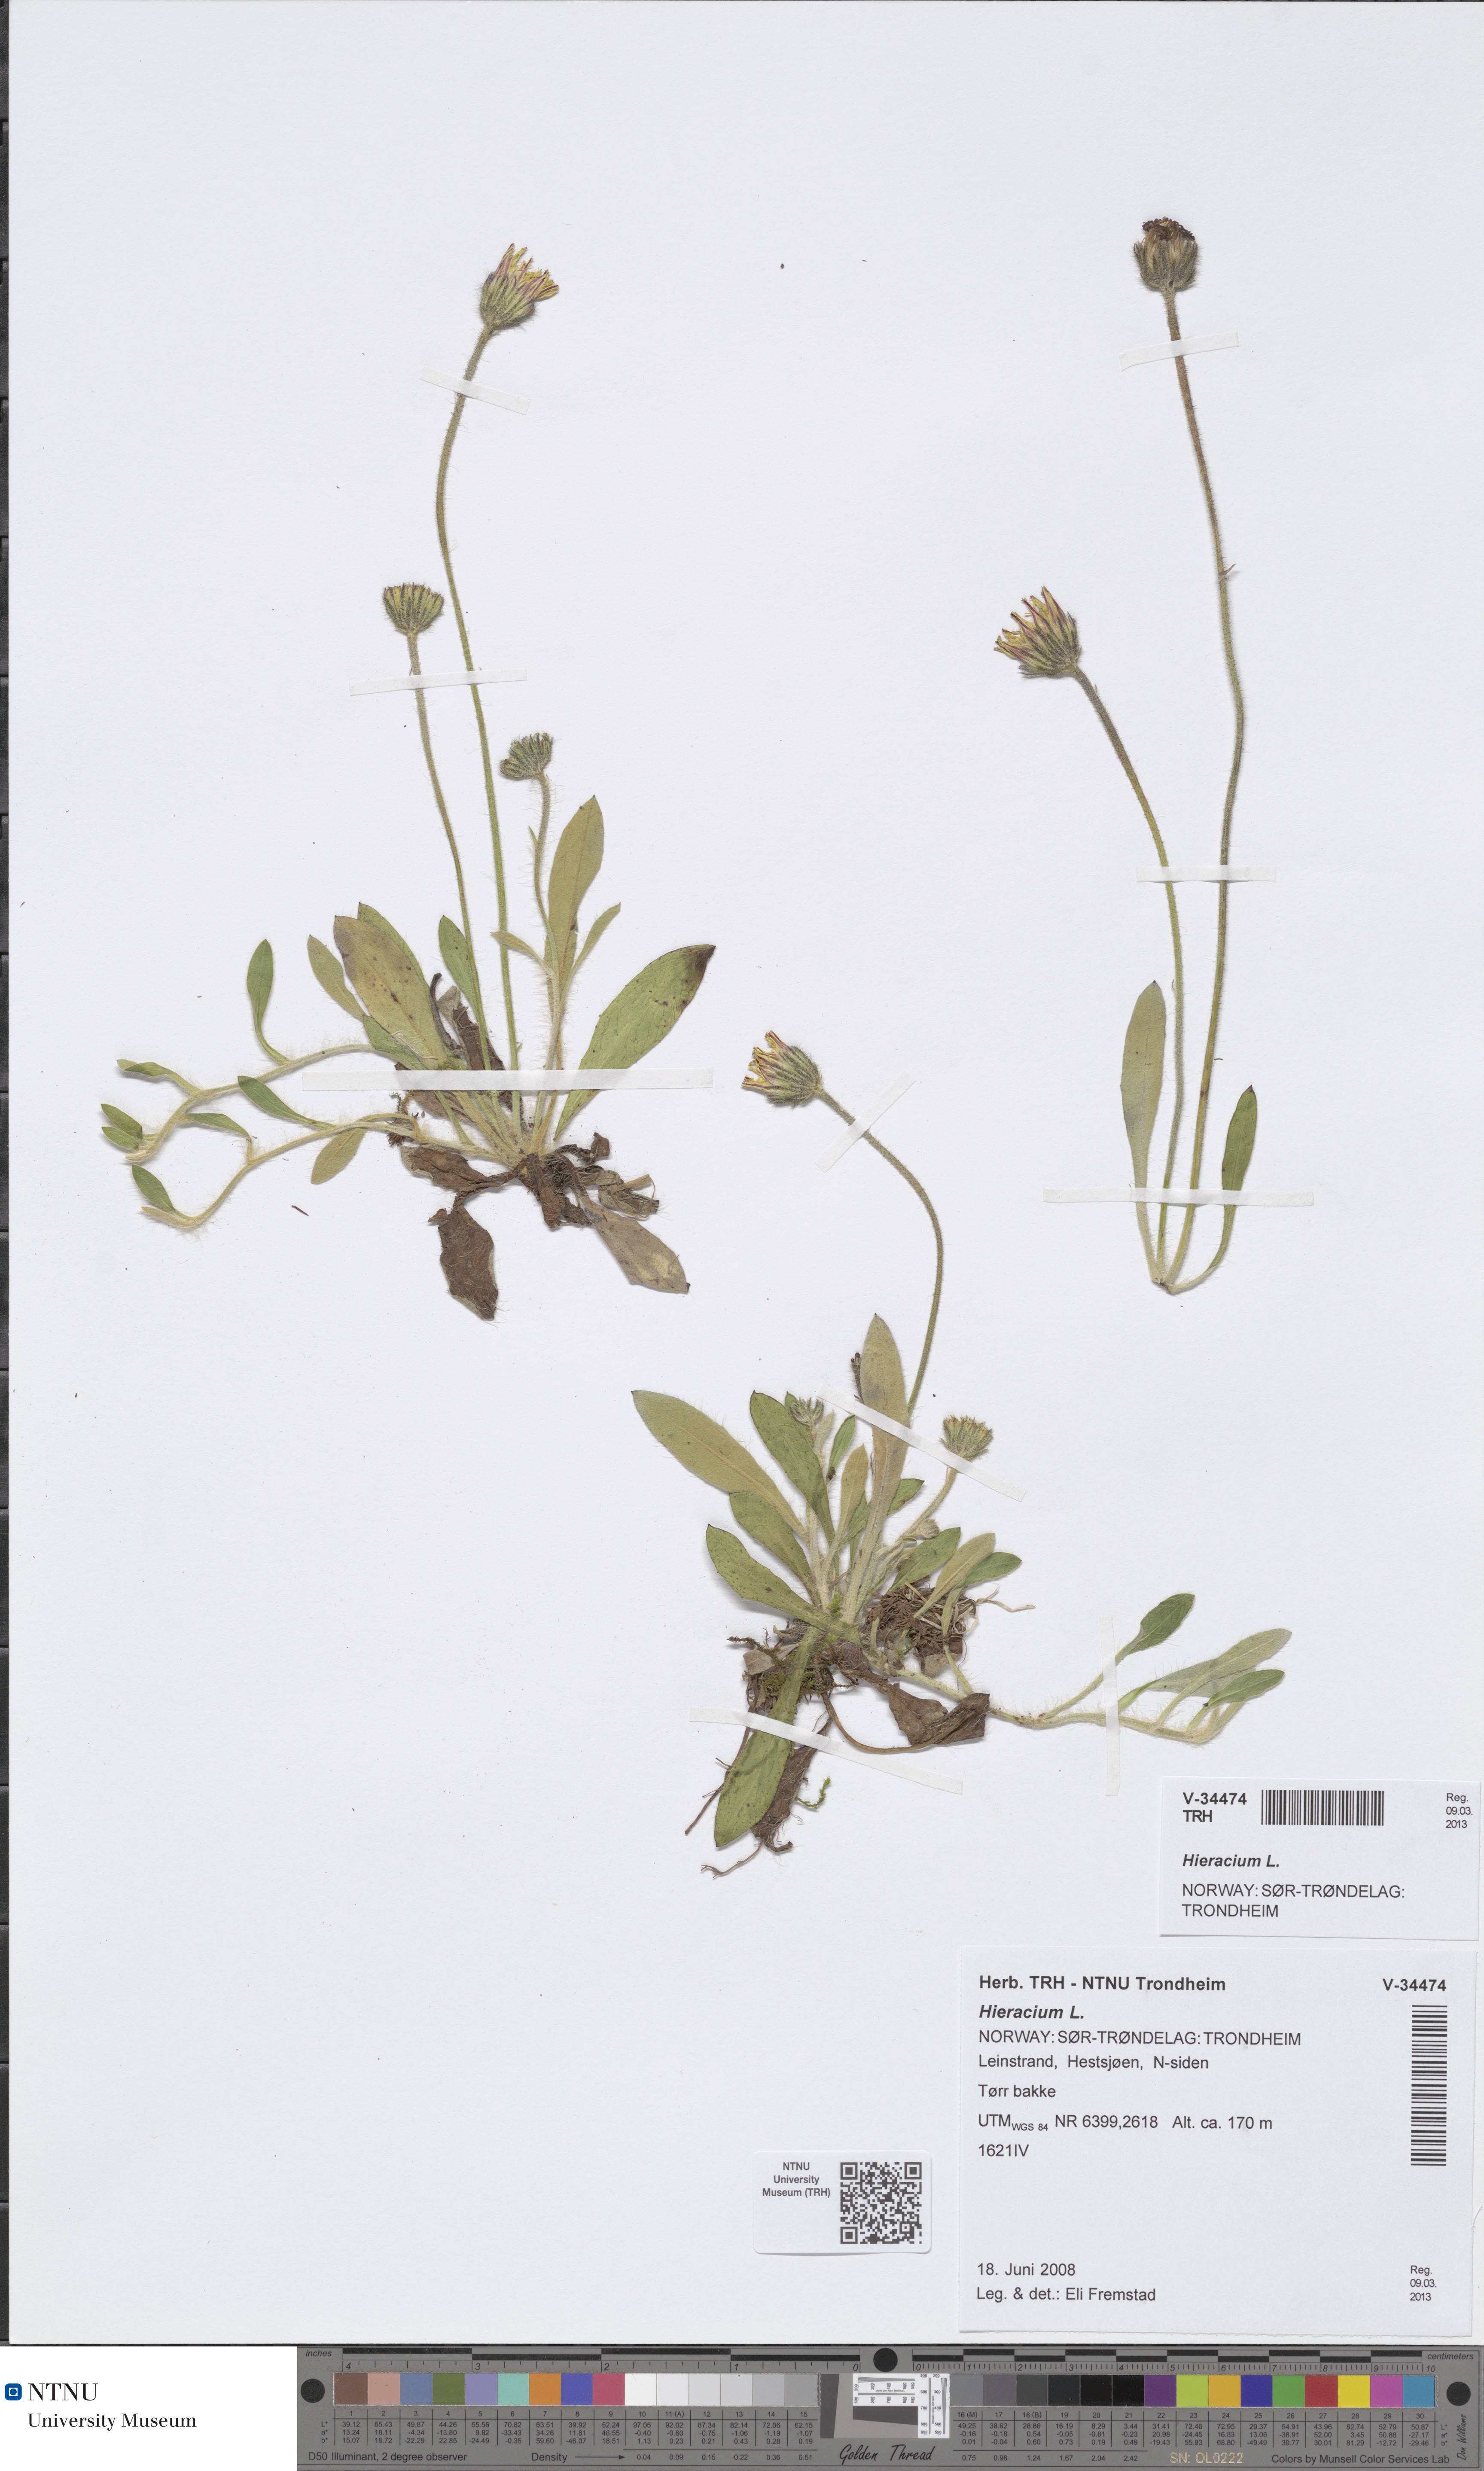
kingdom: Plantae
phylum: Tracheophyta
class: Magnoliopsida
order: Asterales
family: Asteraceae
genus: Hieracium
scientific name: Hieracium
